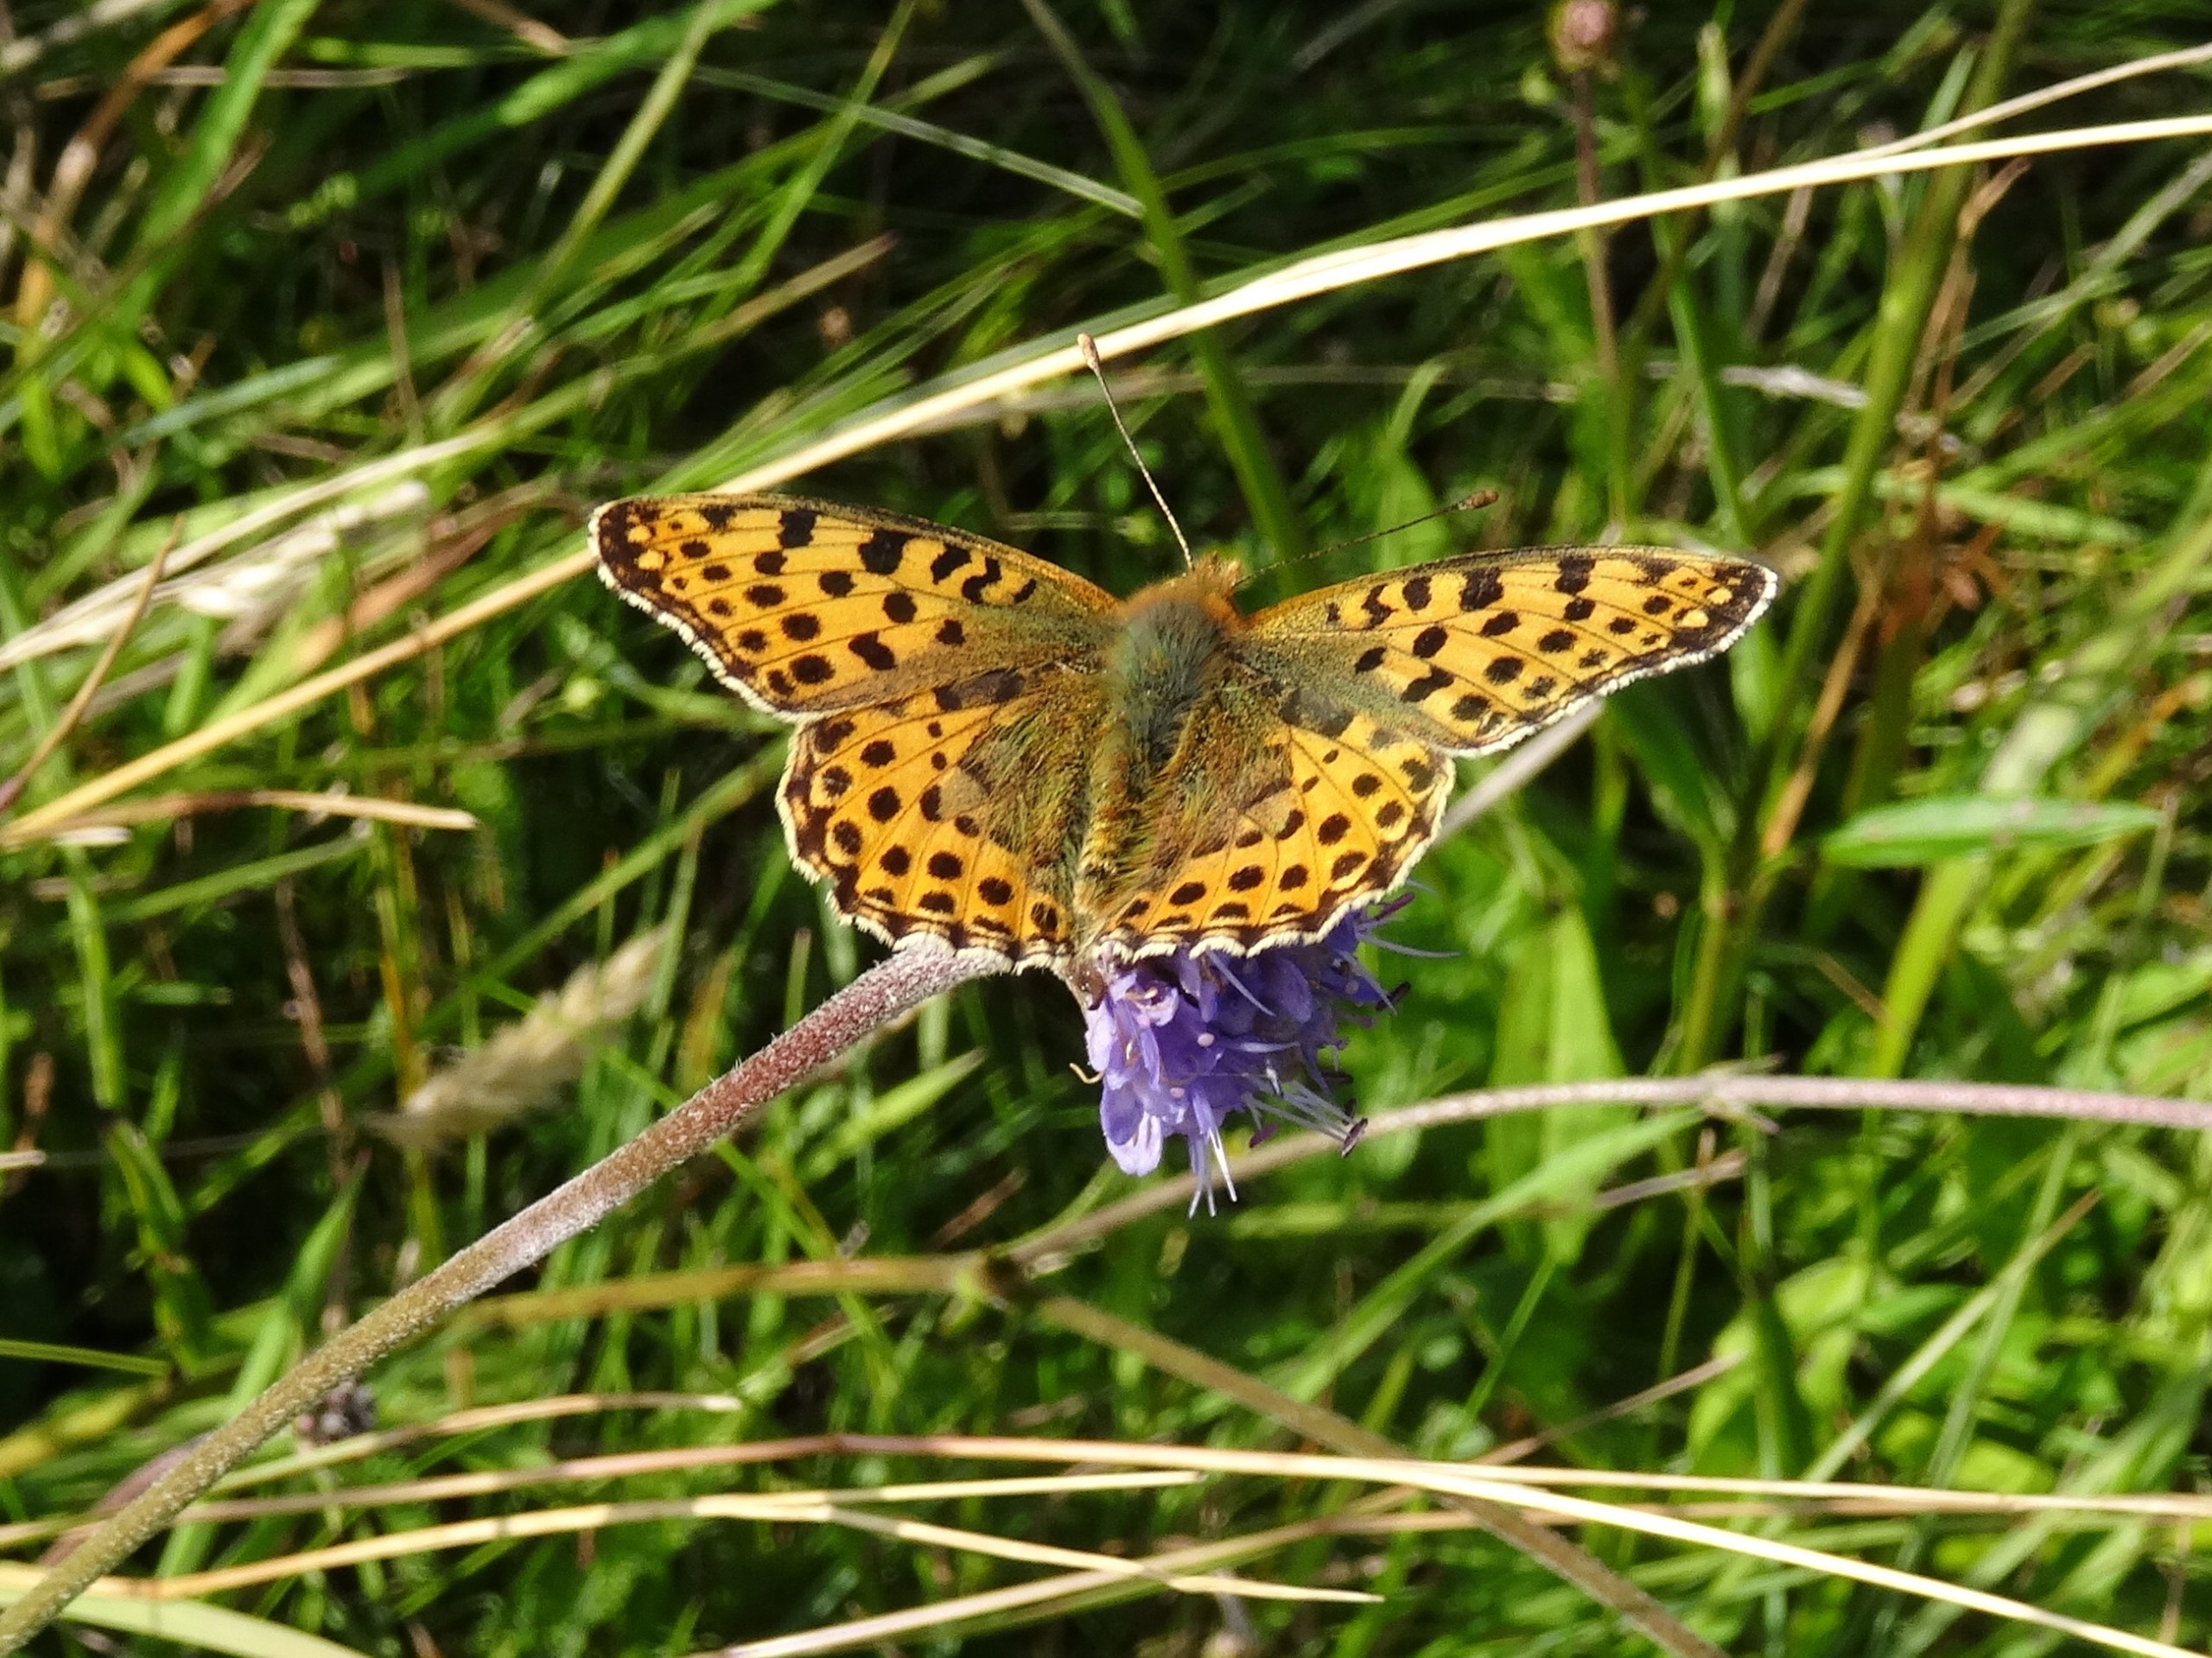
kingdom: Animalia
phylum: Arthropoda
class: Insecta
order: Lepidoptera
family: Nymphalidae
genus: Issoria
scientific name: Issoria lathonia
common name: Storplettet perlemorsommerfugl
